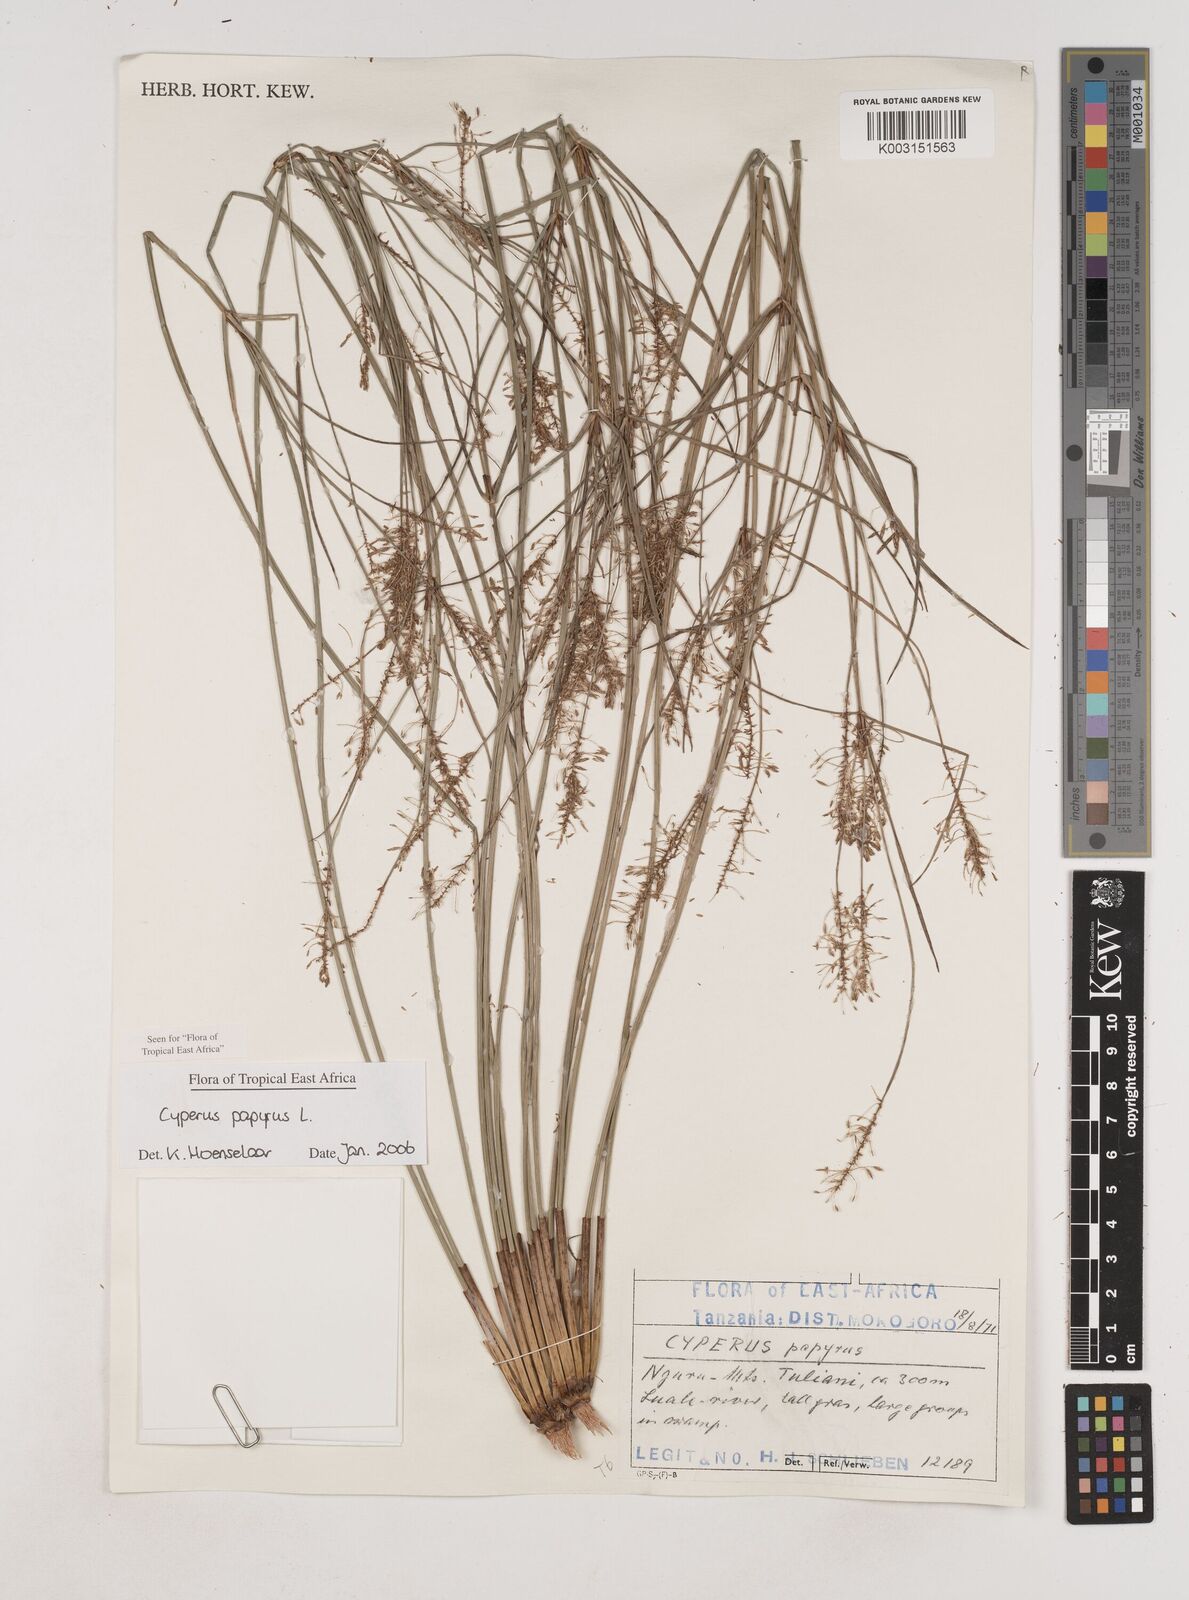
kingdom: Plantae
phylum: Tracheophyta
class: Liliopsida
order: Poales
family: Cyperaceae
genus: Cyperus
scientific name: Cyperus papyrus
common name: Papyrus
